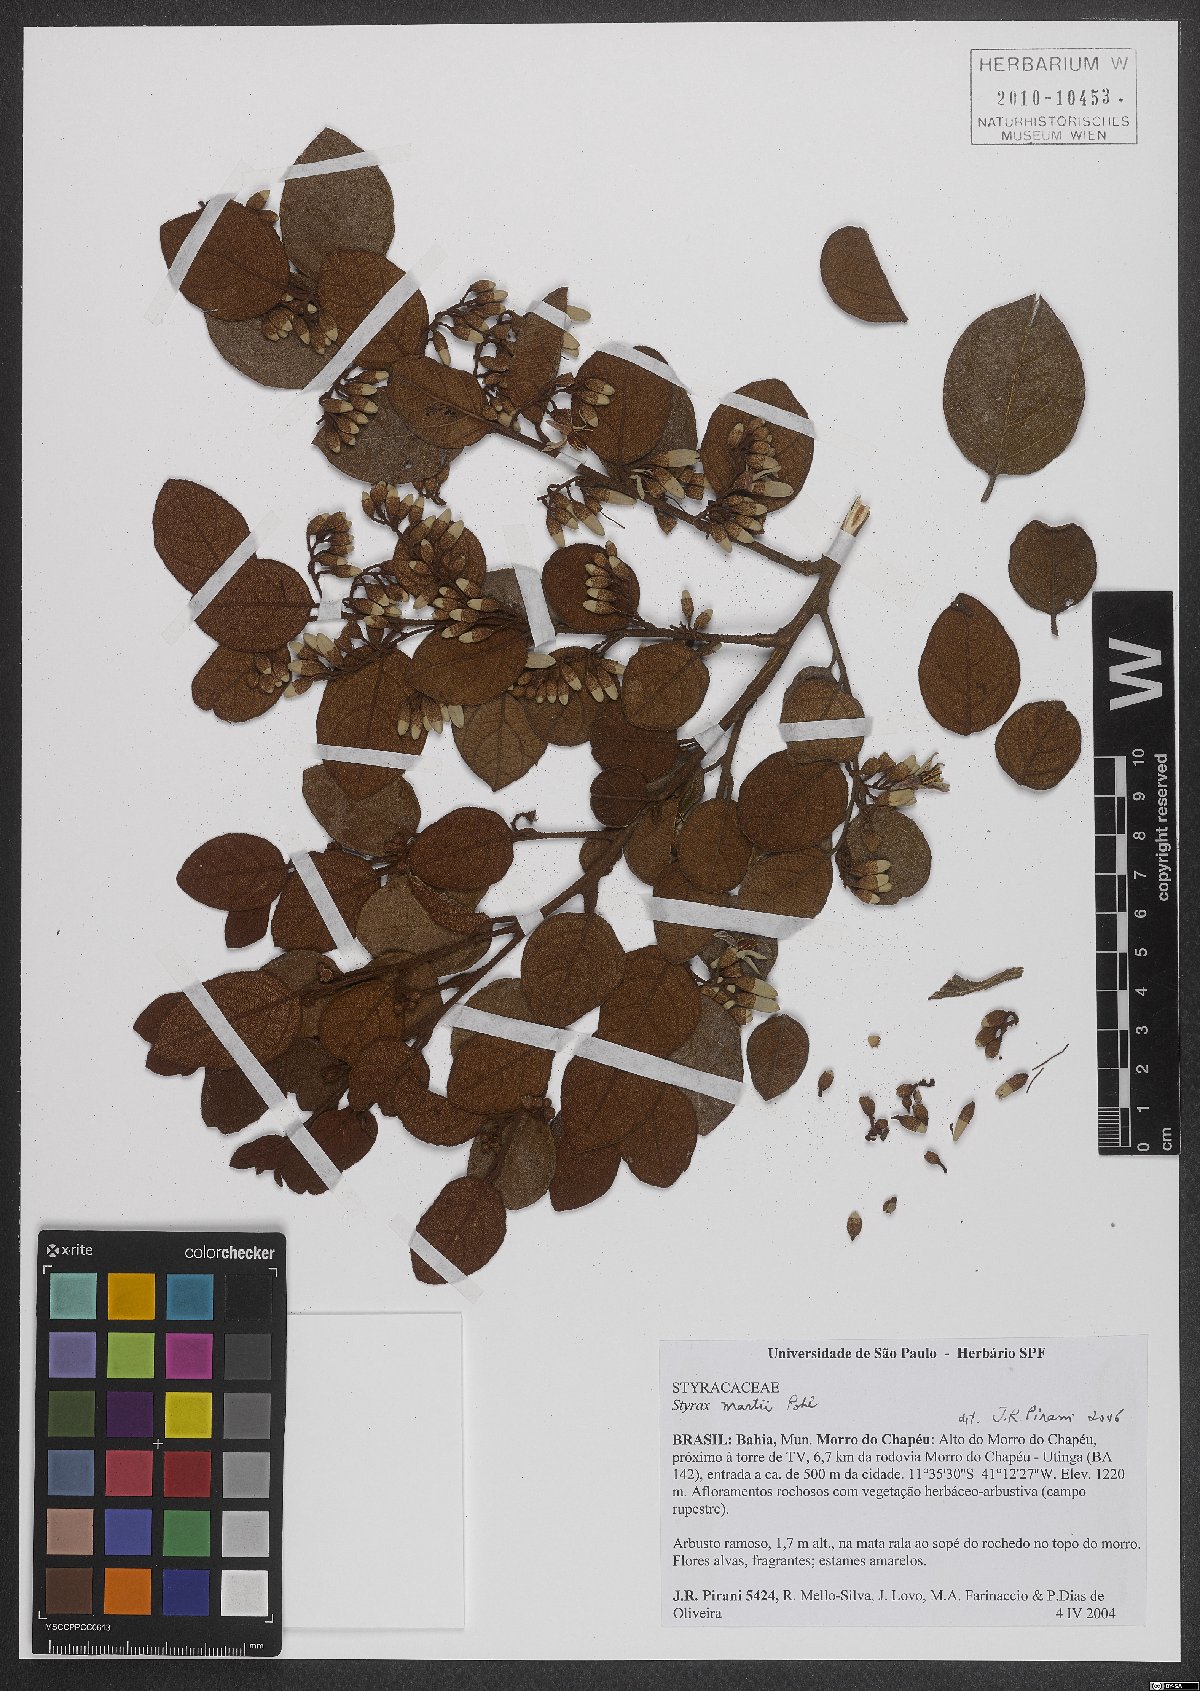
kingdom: Plantae
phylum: Tracheophyta
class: Magnoliopsida
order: Ericales
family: Styracaceae
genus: Styrax
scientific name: Styrax martii
